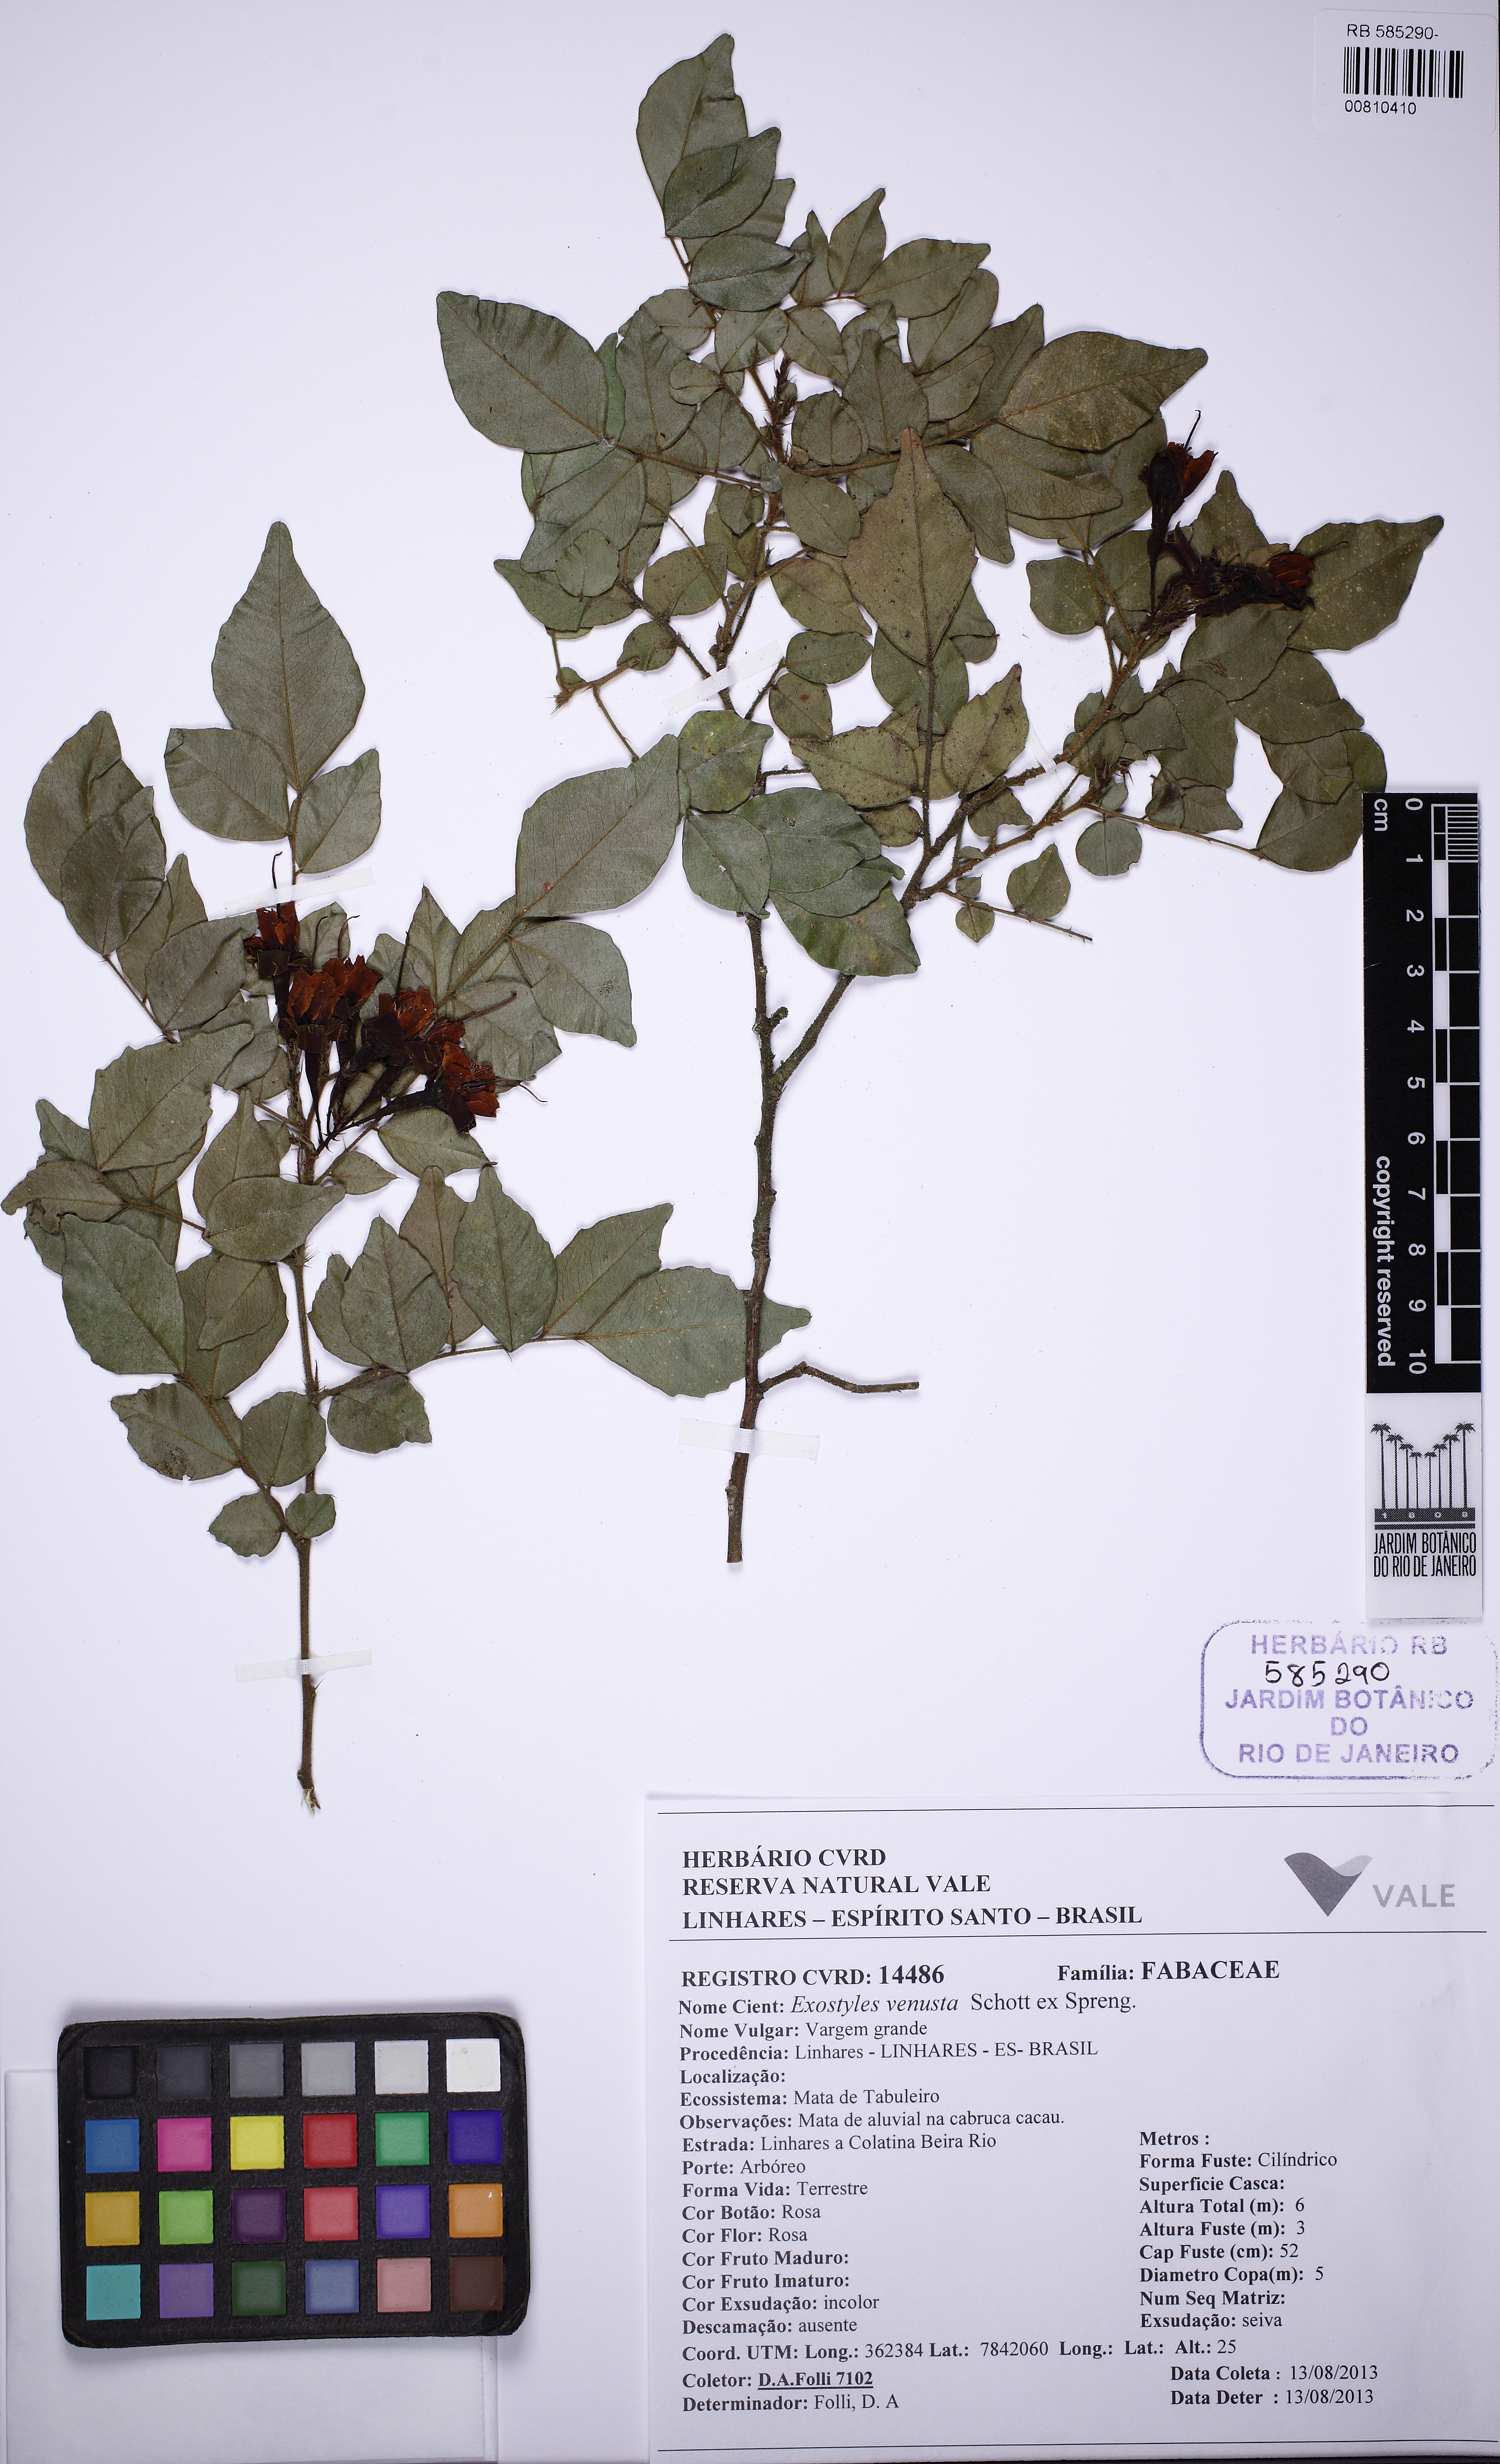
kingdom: Plantae
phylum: Tracheophyta
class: Magnoliopsida
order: Fabales
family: Fabaceae
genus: Exostyles
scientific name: Exostyles venusta
